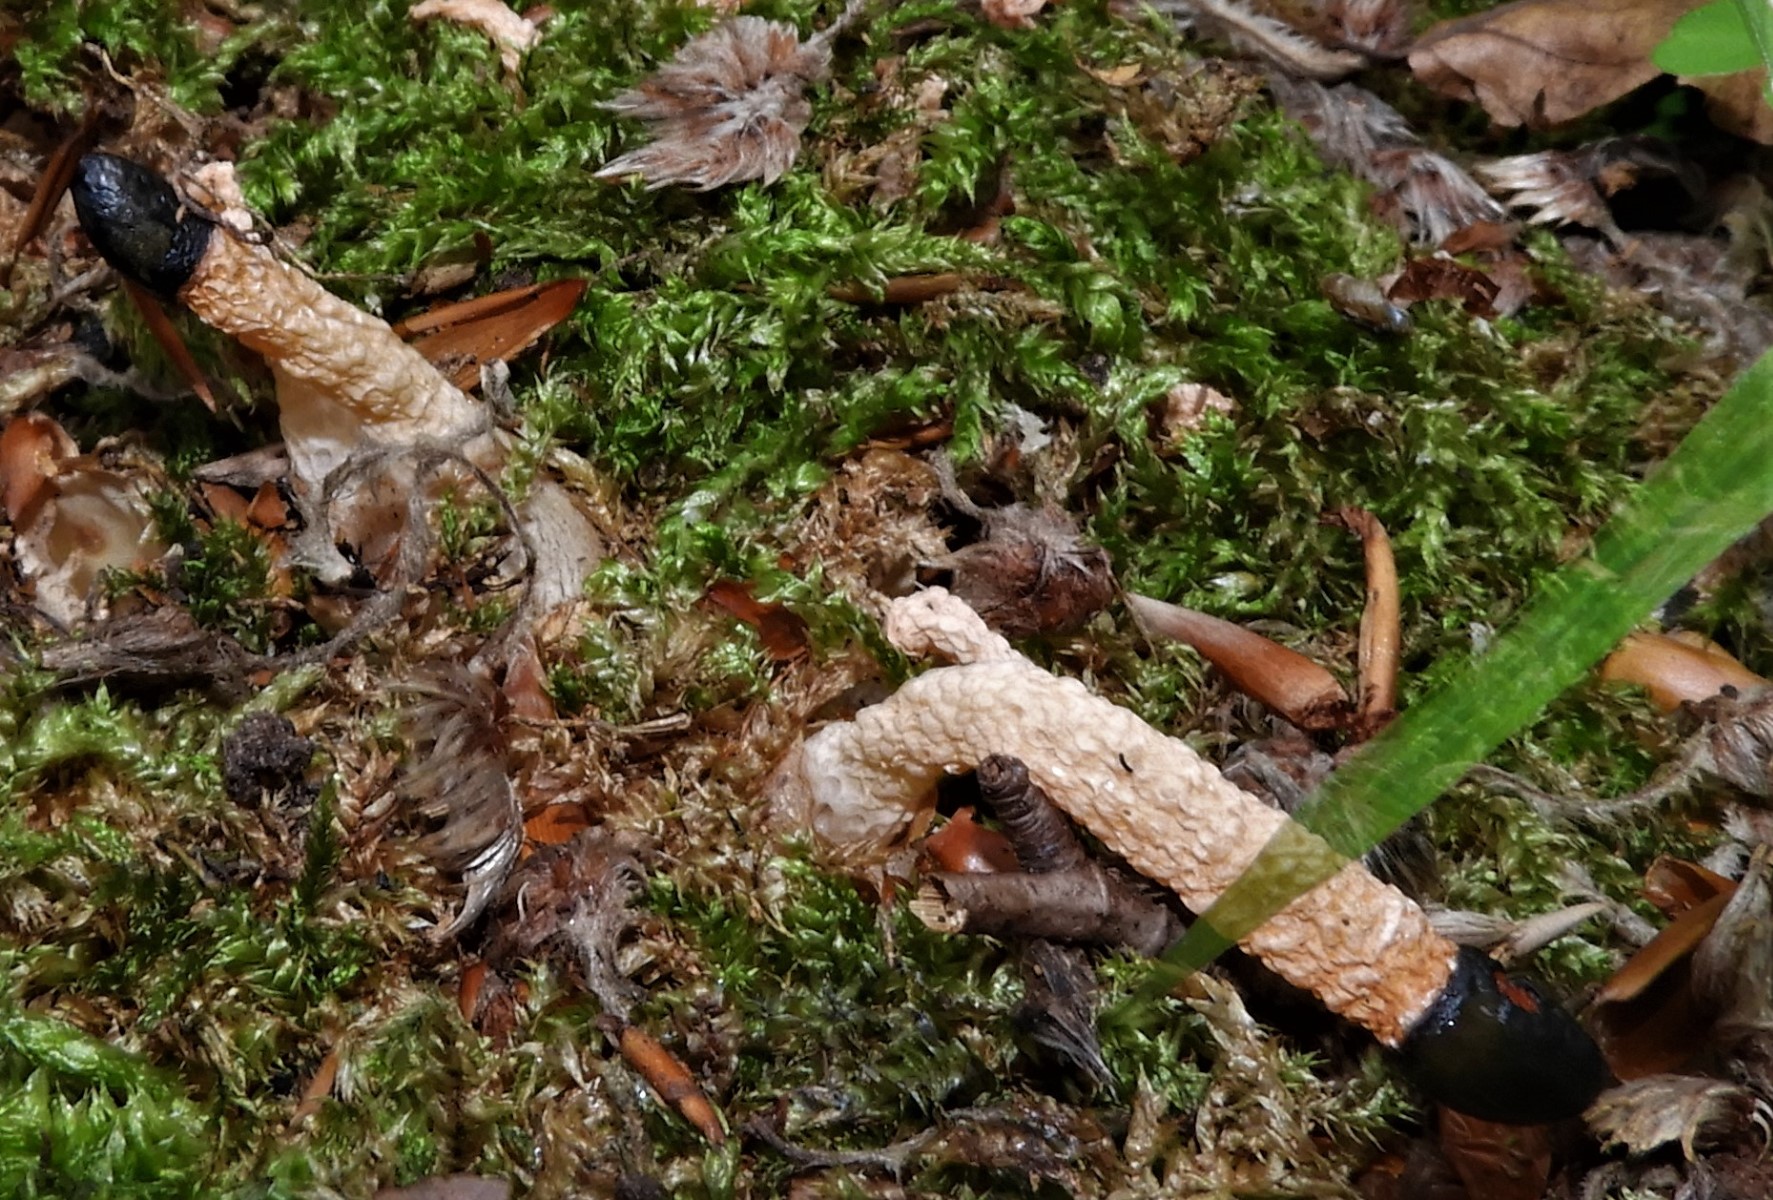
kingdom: Fungi
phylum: Basidiomycota
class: Agaricomycetes
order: Phallales
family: Phallaceae
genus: Mutinus
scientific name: Mutinus caninus
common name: hunde-stinksvamp
